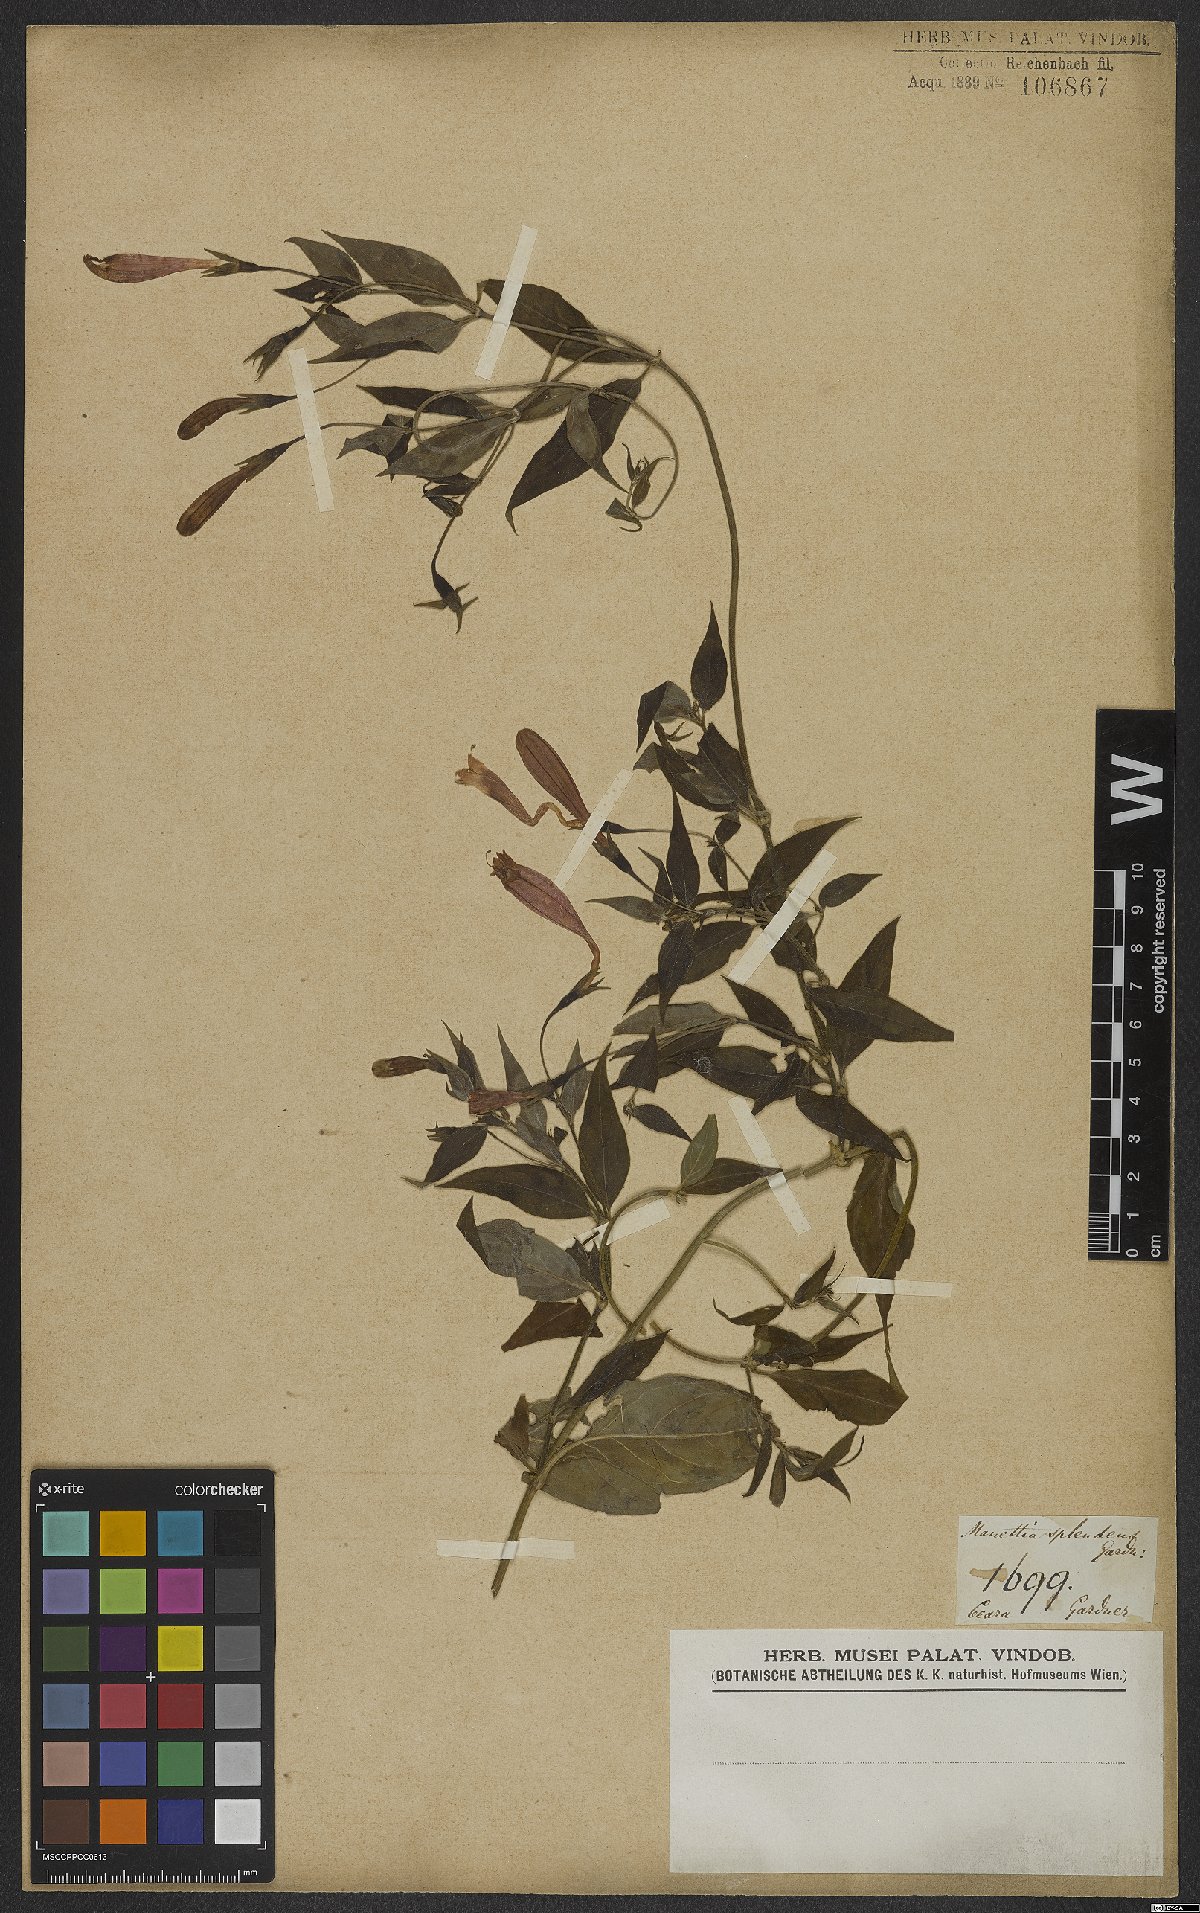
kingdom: Plantae
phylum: Tracheophyta
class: Magnoliopsida
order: Gentianales
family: Rubiaceae
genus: Manettia
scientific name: Manettia splendens
